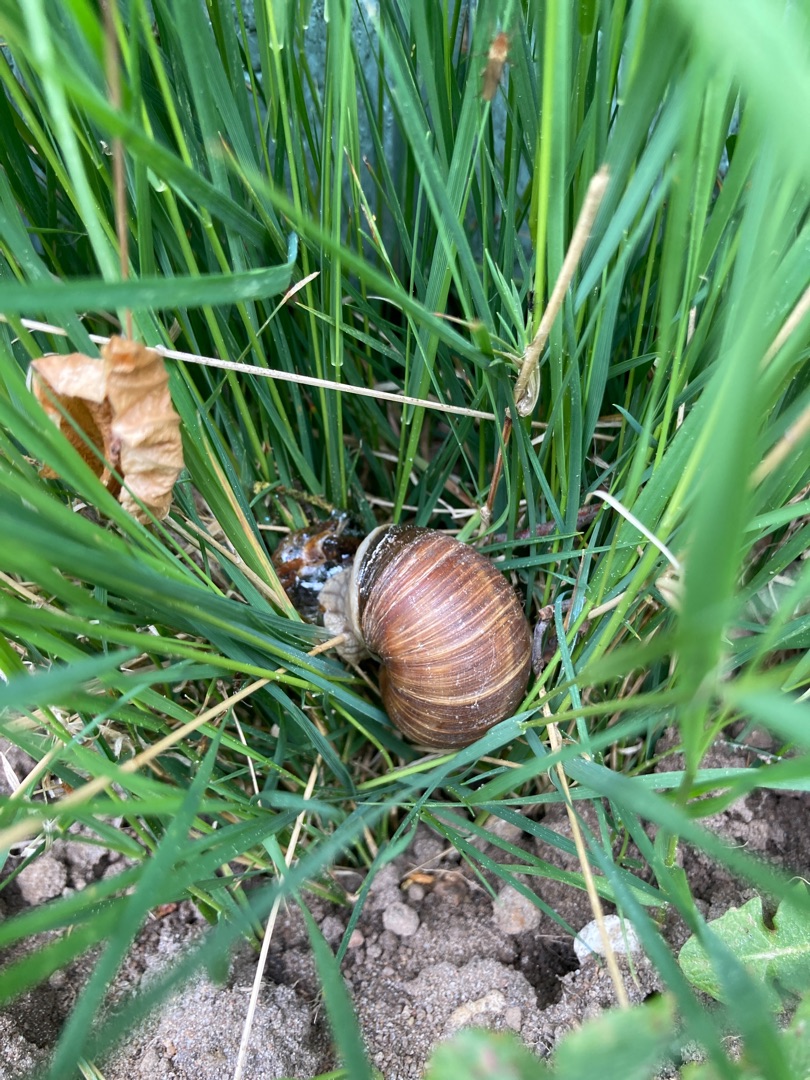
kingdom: Animalia
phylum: Mollusca
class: Gastropoda
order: Stylommatophora
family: Helicidae
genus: Helix
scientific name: Helix pomatia
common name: Vinbjergsnegl
